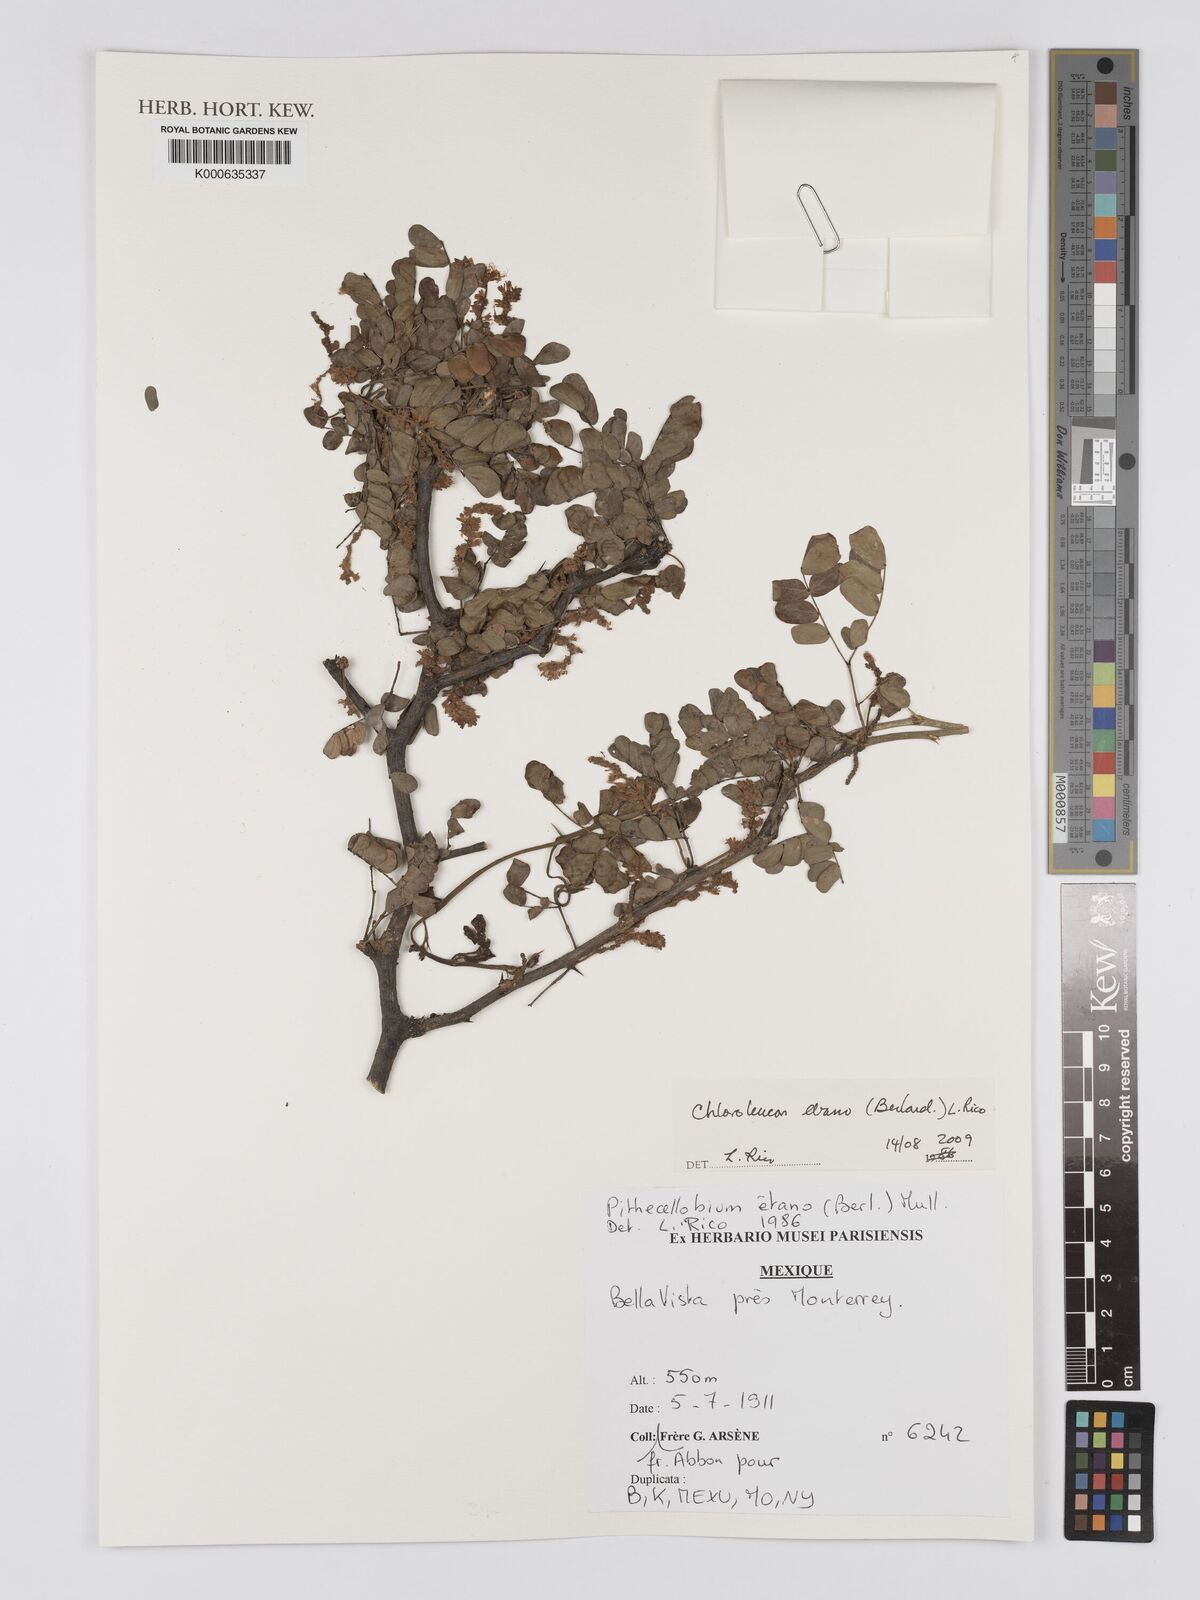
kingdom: Plantae
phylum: Tracheophyta
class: Magnoliopsida
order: Fabales
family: Fabaceae
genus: Ebenopsis
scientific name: Ebenopsis ebano
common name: Ebony blackbead
